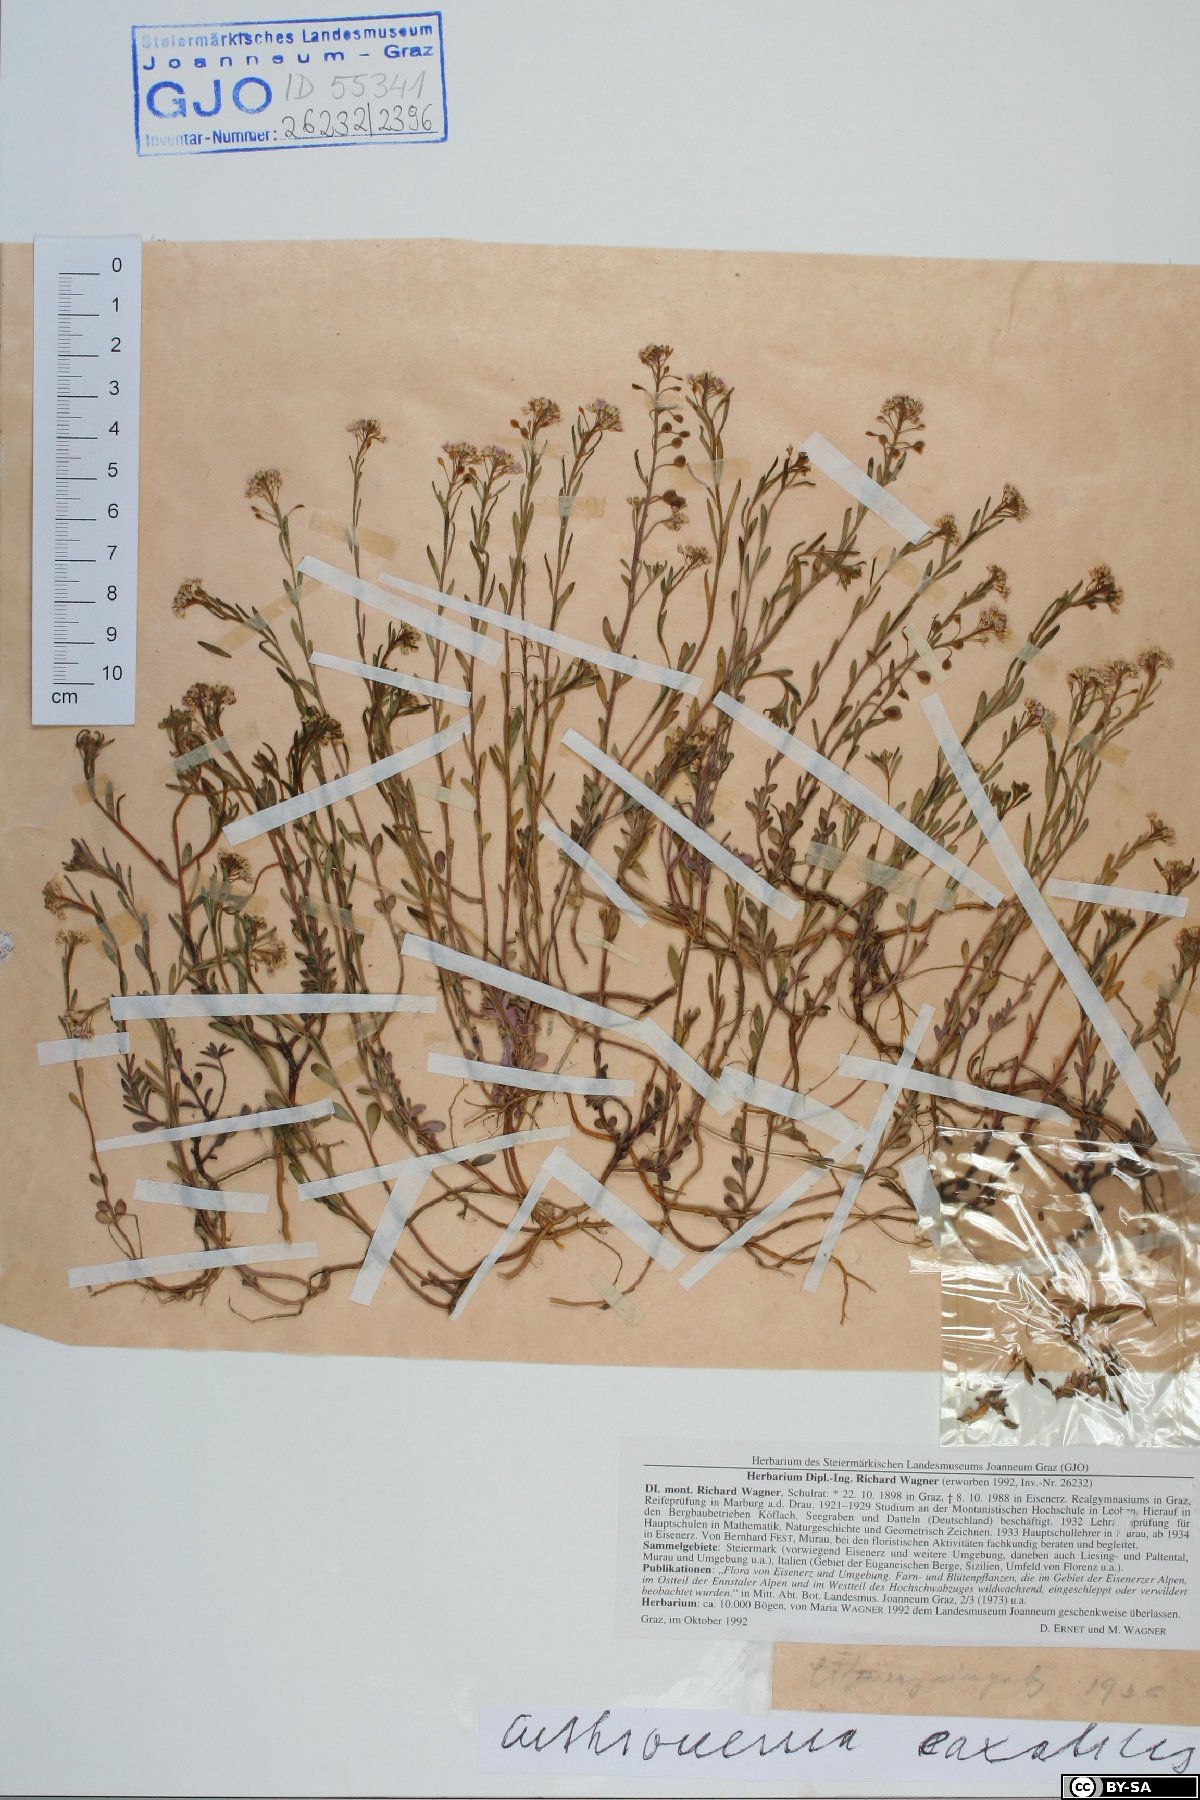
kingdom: Plantae
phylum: Tracheophyta
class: Magnoliopsida
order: Brassicales
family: Brassicaceae
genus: Aethionema
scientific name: Aethionema saxatile
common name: Burnt candytuft
